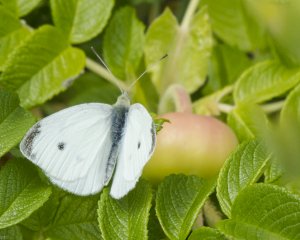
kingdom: Animalia
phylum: Arthropoda
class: Insecta
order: Lepidoptera
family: Pieridae
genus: Pieris
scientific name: Pieris rapae
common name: Cabbage White
